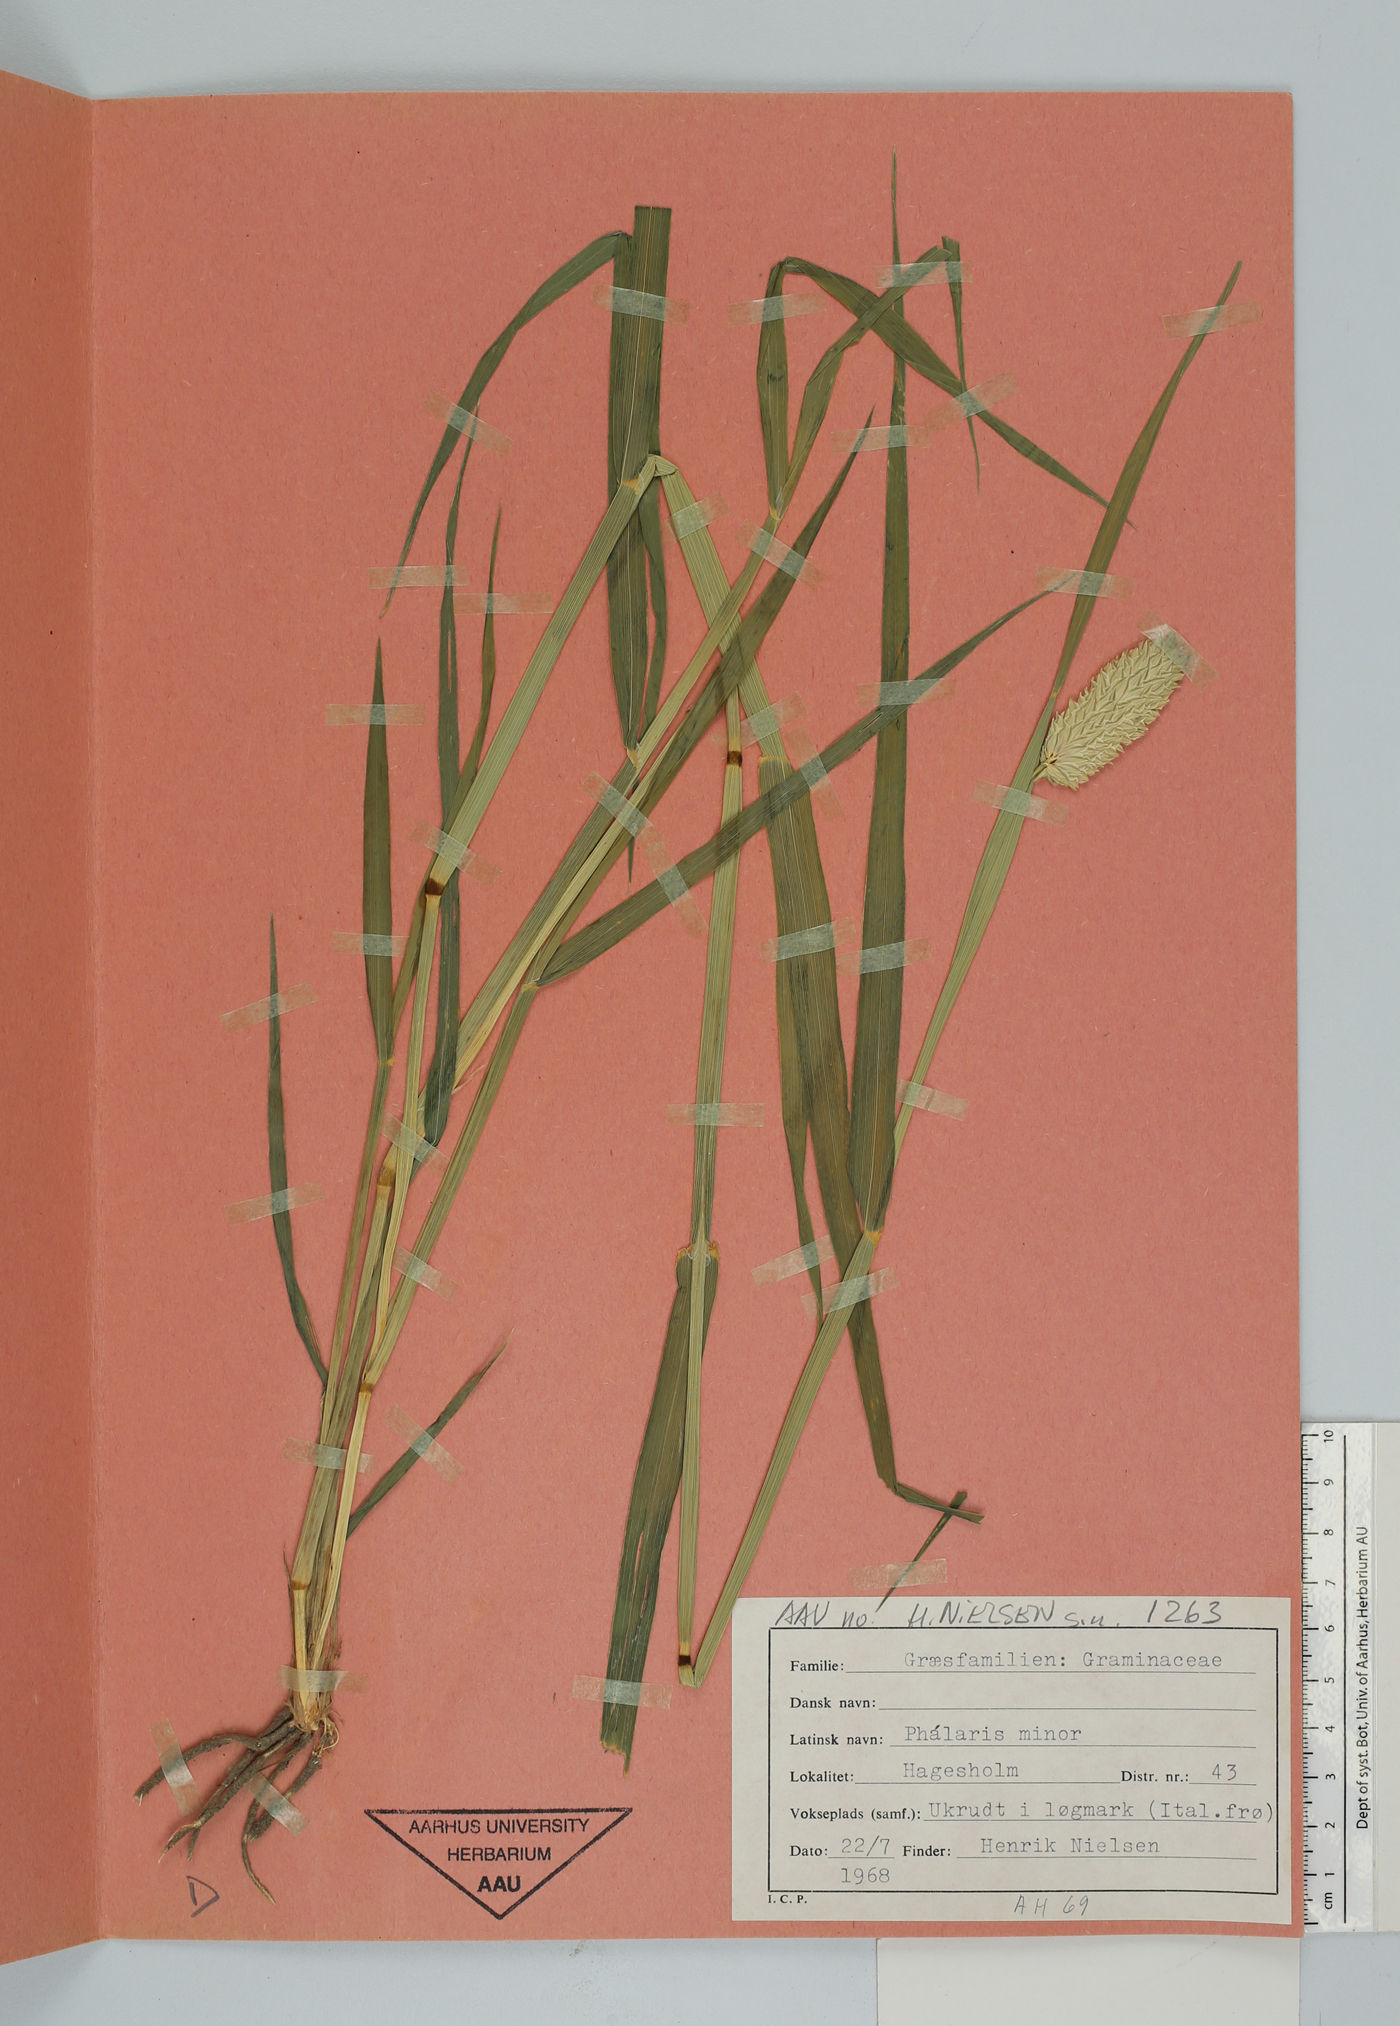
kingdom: Plantae
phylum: Tracheophyta
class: Liliopsida
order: Poales
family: Poaceae
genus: Phalaris
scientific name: Phalaris minor
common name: Littleseed canarygrass
